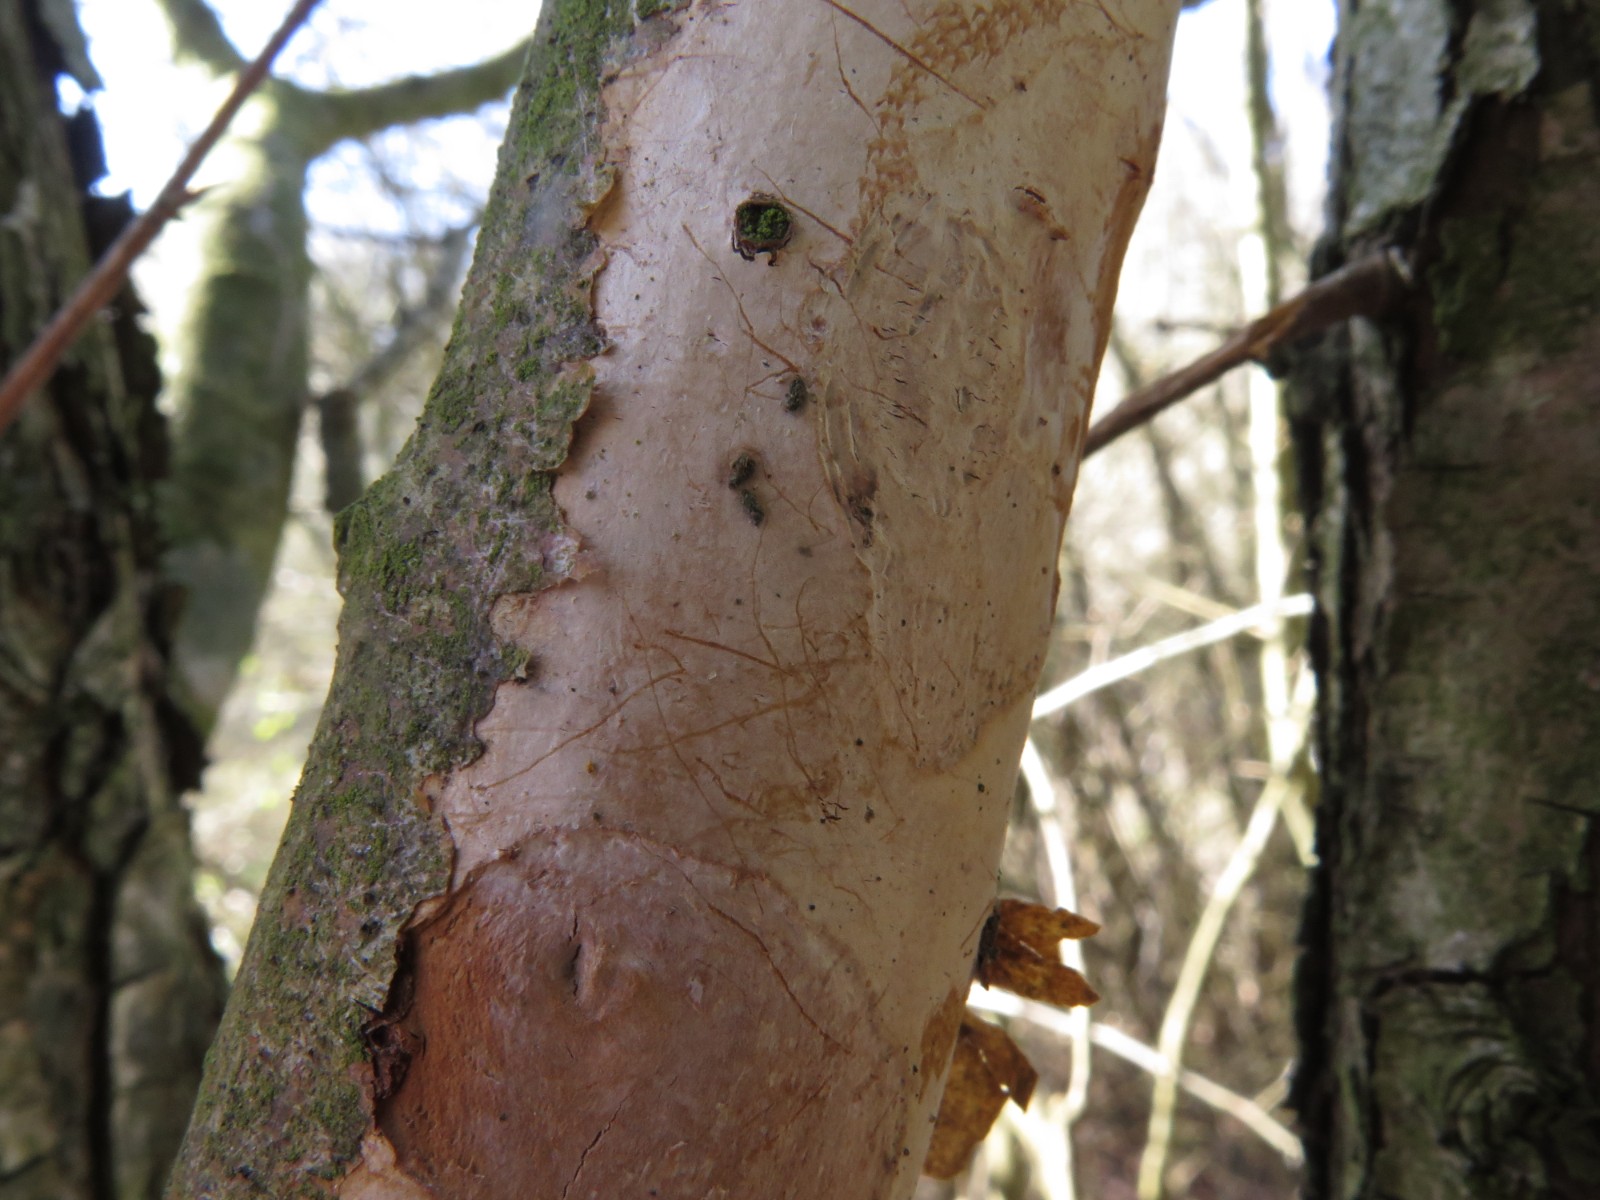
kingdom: Fungi
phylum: Basidiomycota
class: Agaricomycetes
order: Corticiales
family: Vuilleminiaceae
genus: Vuilleminia
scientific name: Vuilleminia cystidiata
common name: tjørne-barksprænger
